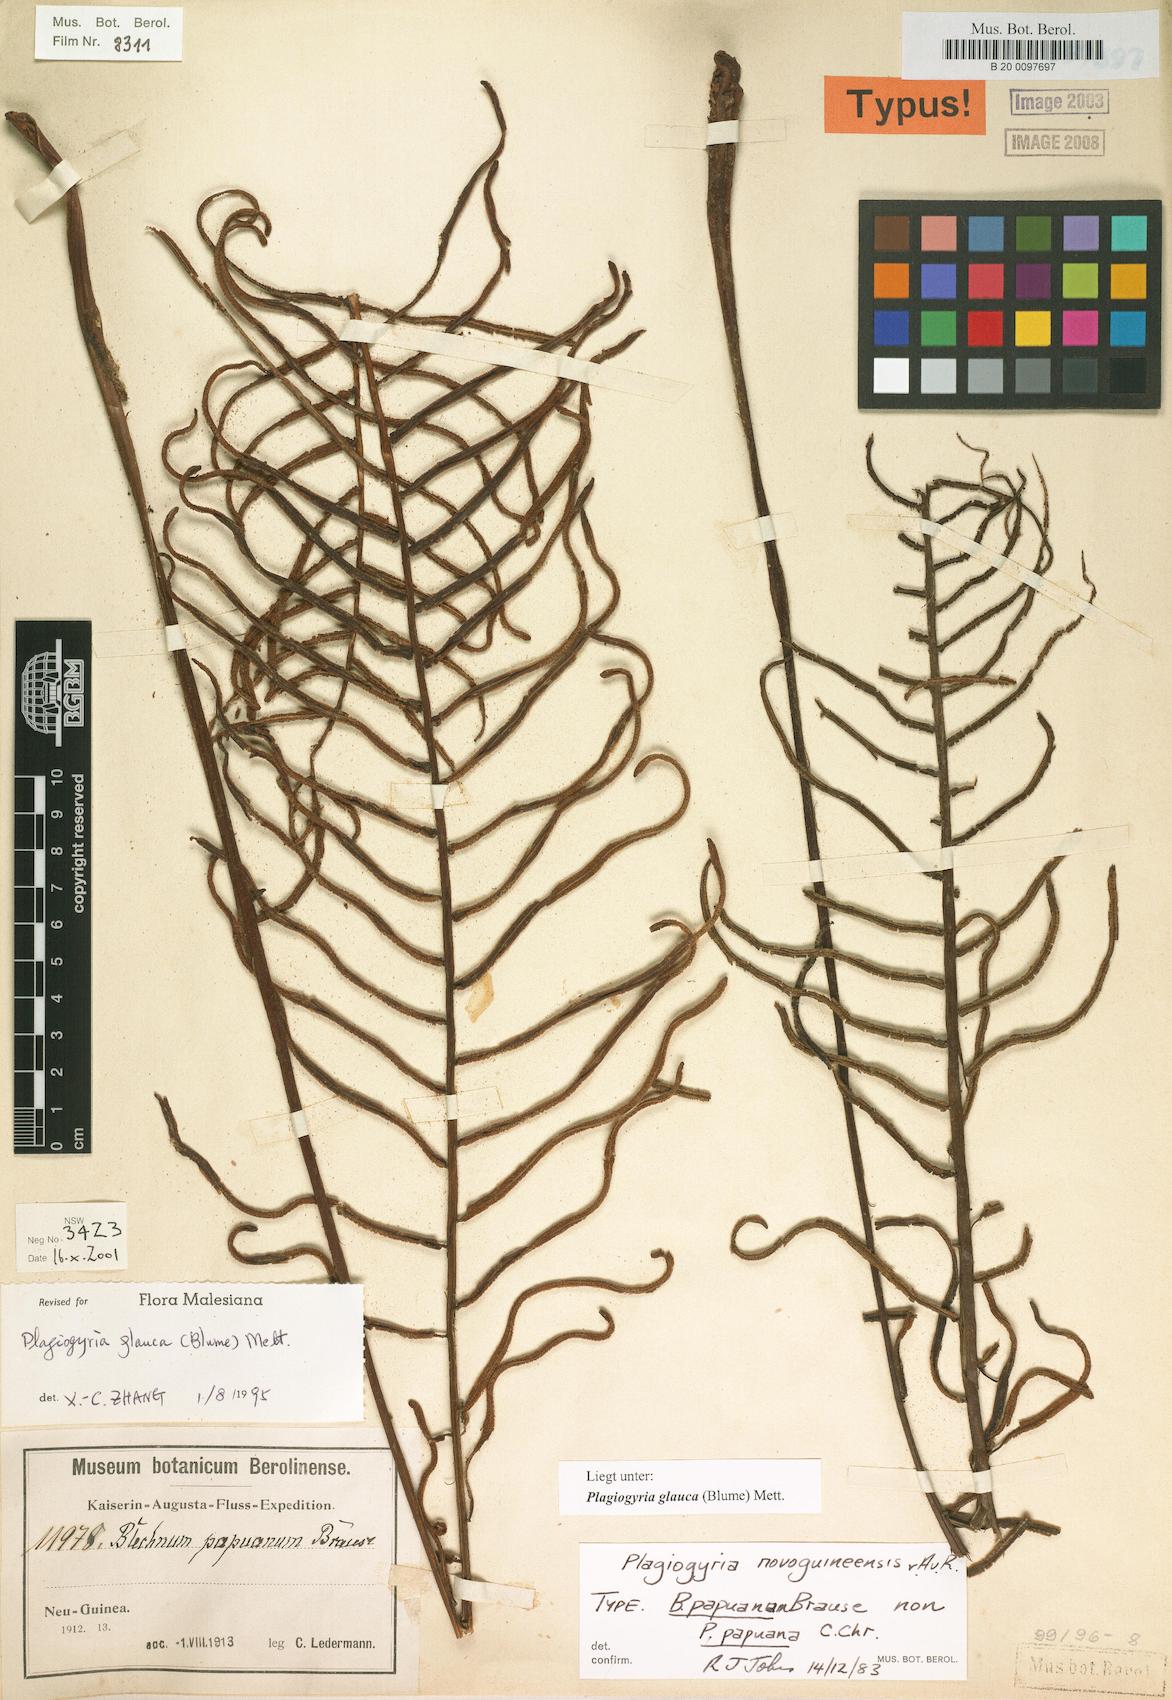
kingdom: Plantae
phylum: Tracheophyta
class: Polypodiopsida
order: Cyatheales
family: Plagiogyriaceae
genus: Plagiogyria
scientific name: Plagiogyria glauca
